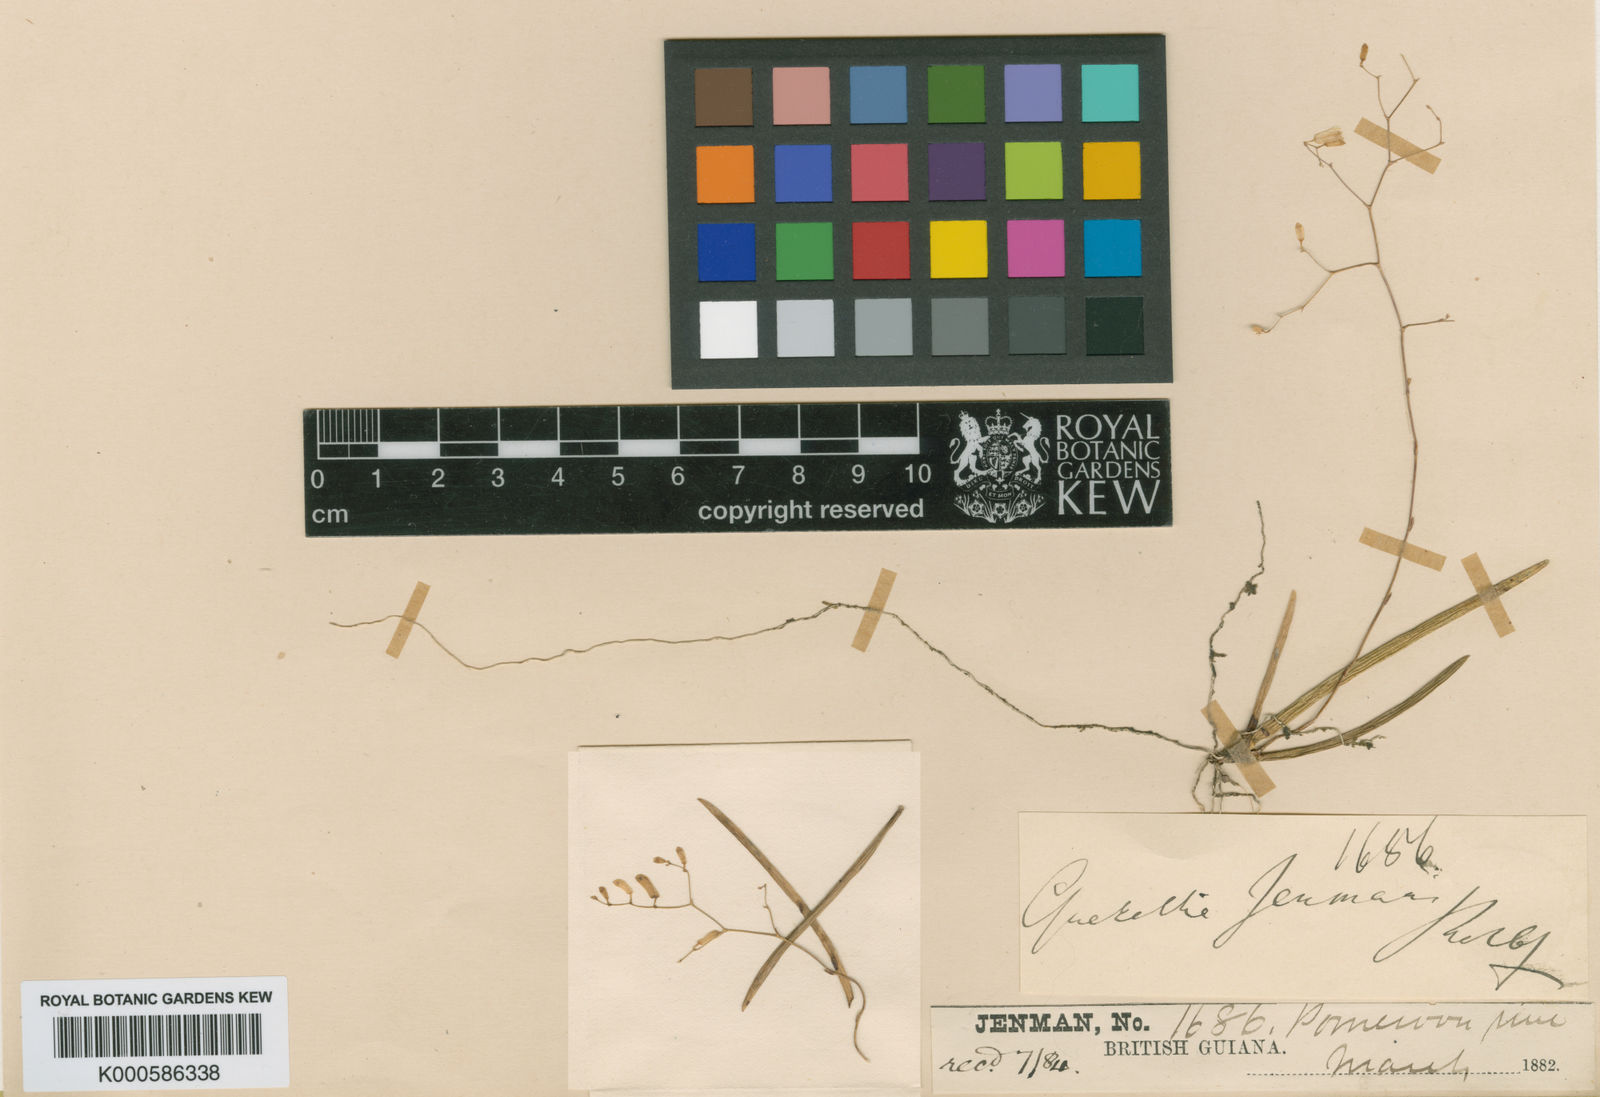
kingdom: Plantae
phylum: Tracheophyta
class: Liliopsida
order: Asparagales
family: Orchidaceae
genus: Quekettia
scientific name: Quekettia
